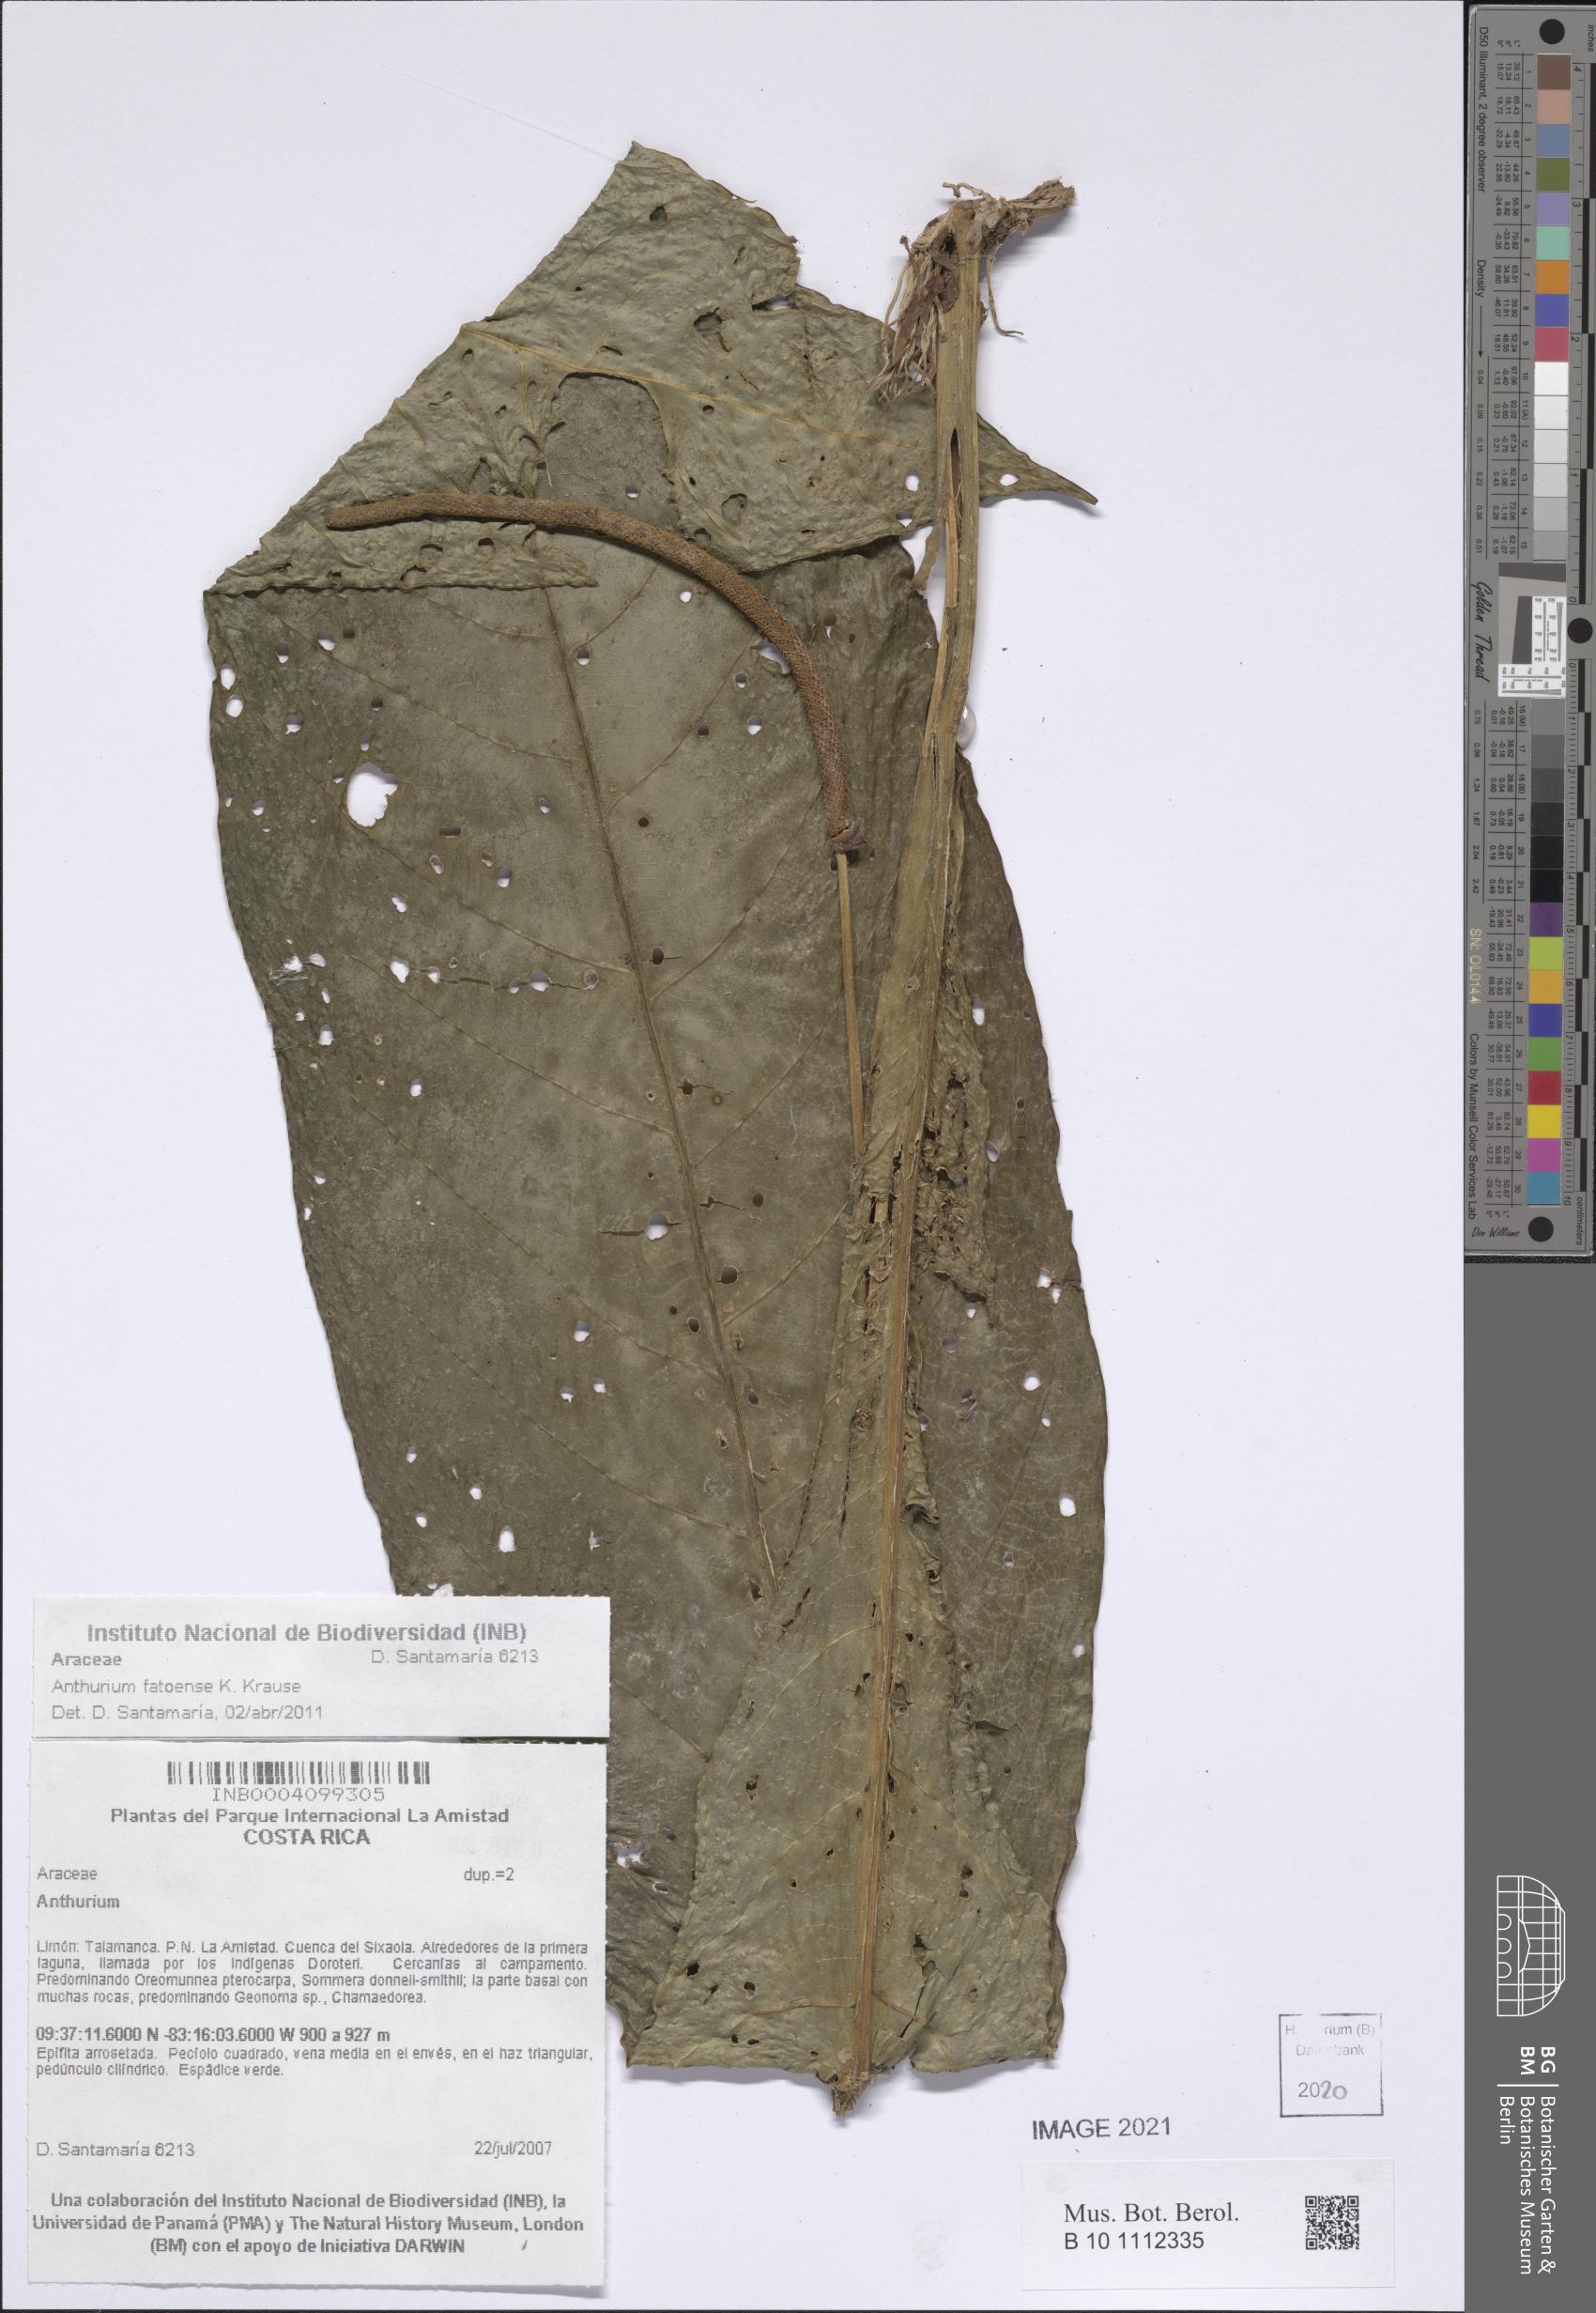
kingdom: Plantae
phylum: Tracheophyta
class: Liliopsida
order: Alismatales
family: Araceae
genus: Anthurium
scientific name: Anthurium fatoense
